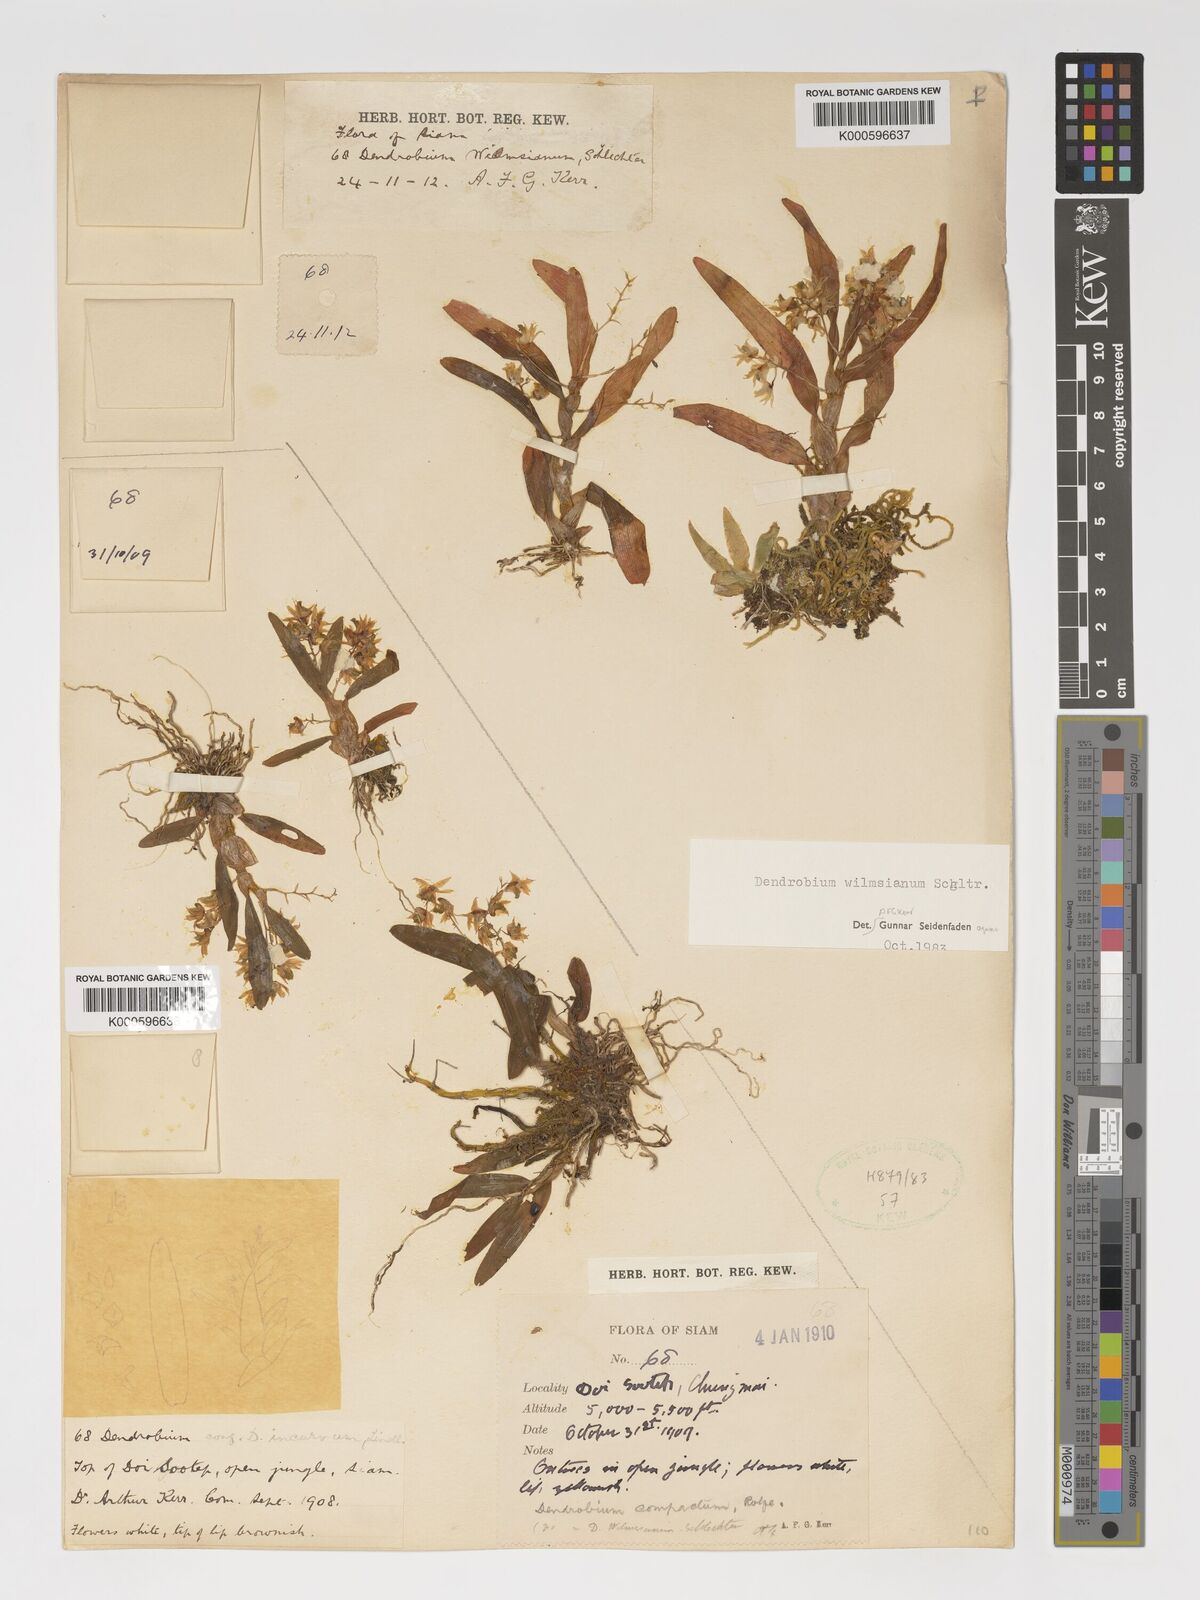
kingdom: Plantae
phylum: Tracheophyta
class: Liliopsida
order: Asparagales
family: Orchidaceae
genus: Dendrobium
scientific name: Dendrobium compactum
